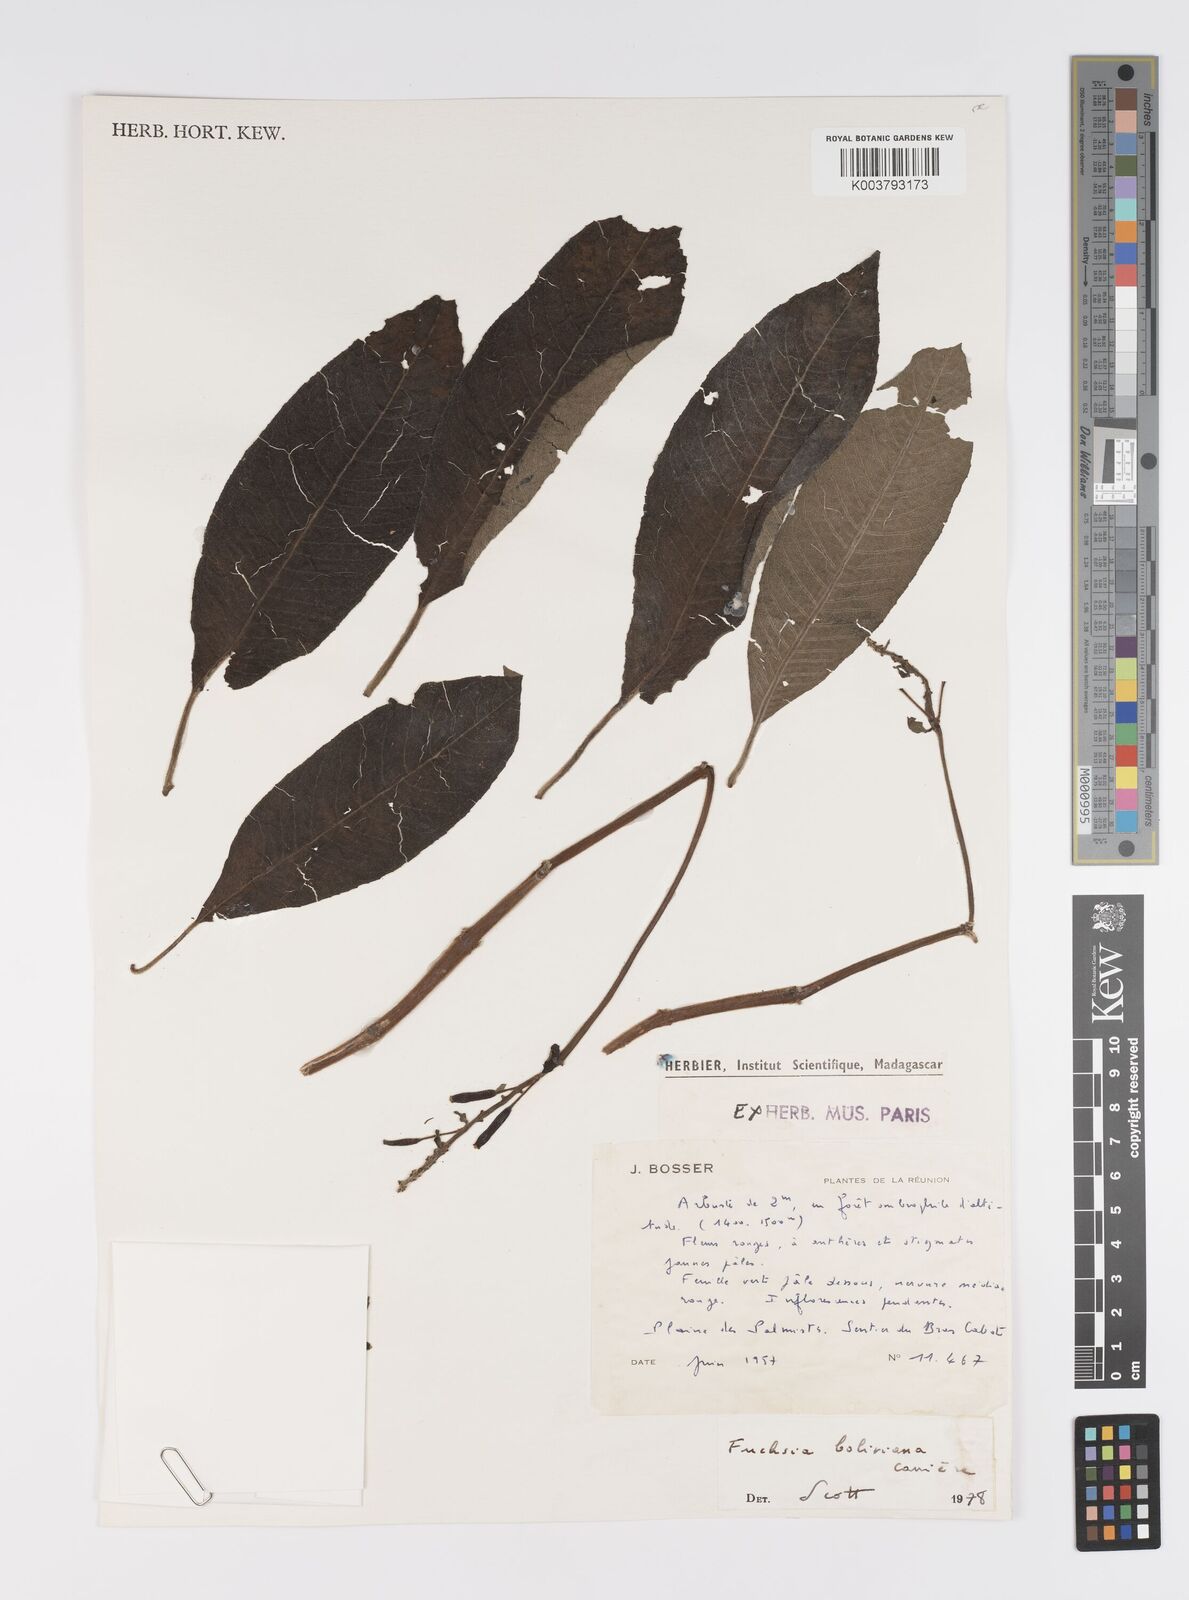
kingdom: Plantae
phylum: Tracheophyta
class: Magnoliopsida
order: Myrtales
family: Onagraceae
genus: Fuchsia
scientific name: Fuchsia boliviana
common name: Bolivian fuchsia
